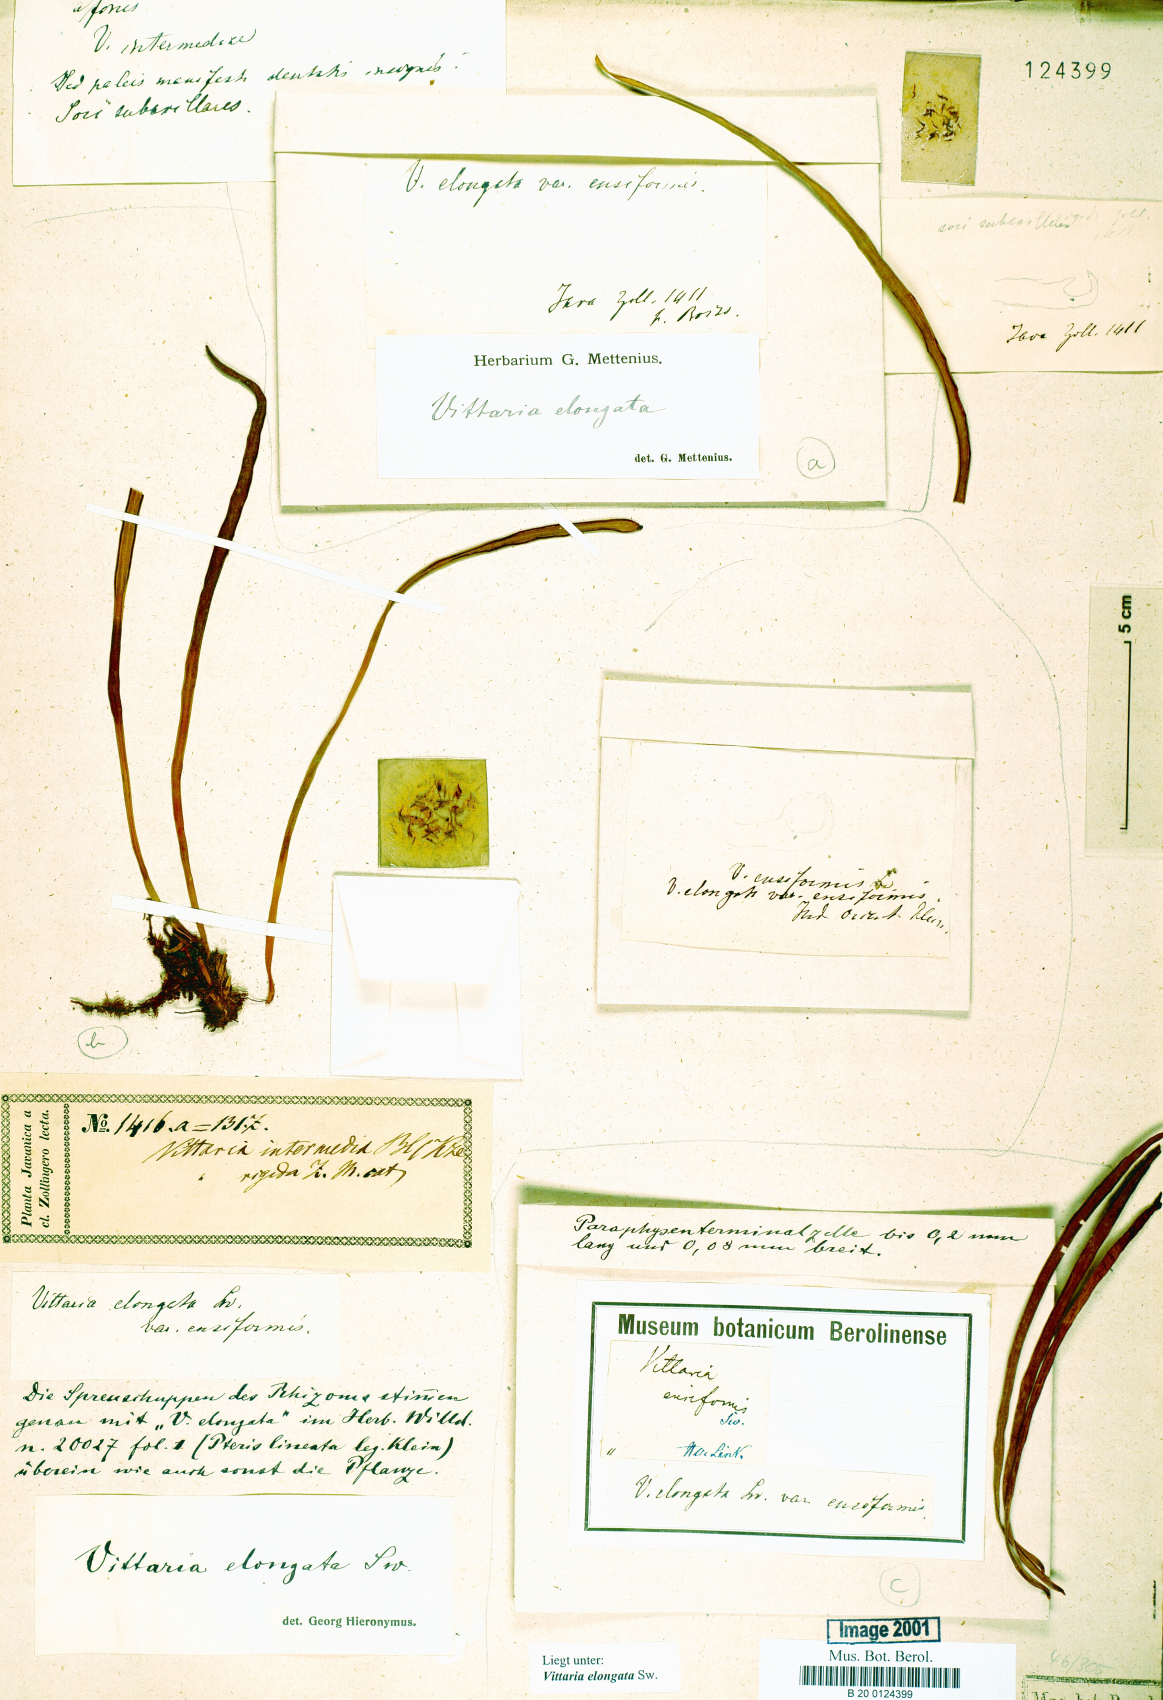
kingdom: Plantae
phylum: Tracheophyta
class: Polypodiopsida
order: Polypodiales
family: Pteridaceae
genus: Haplopteris
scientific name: Haplopteris elongata
